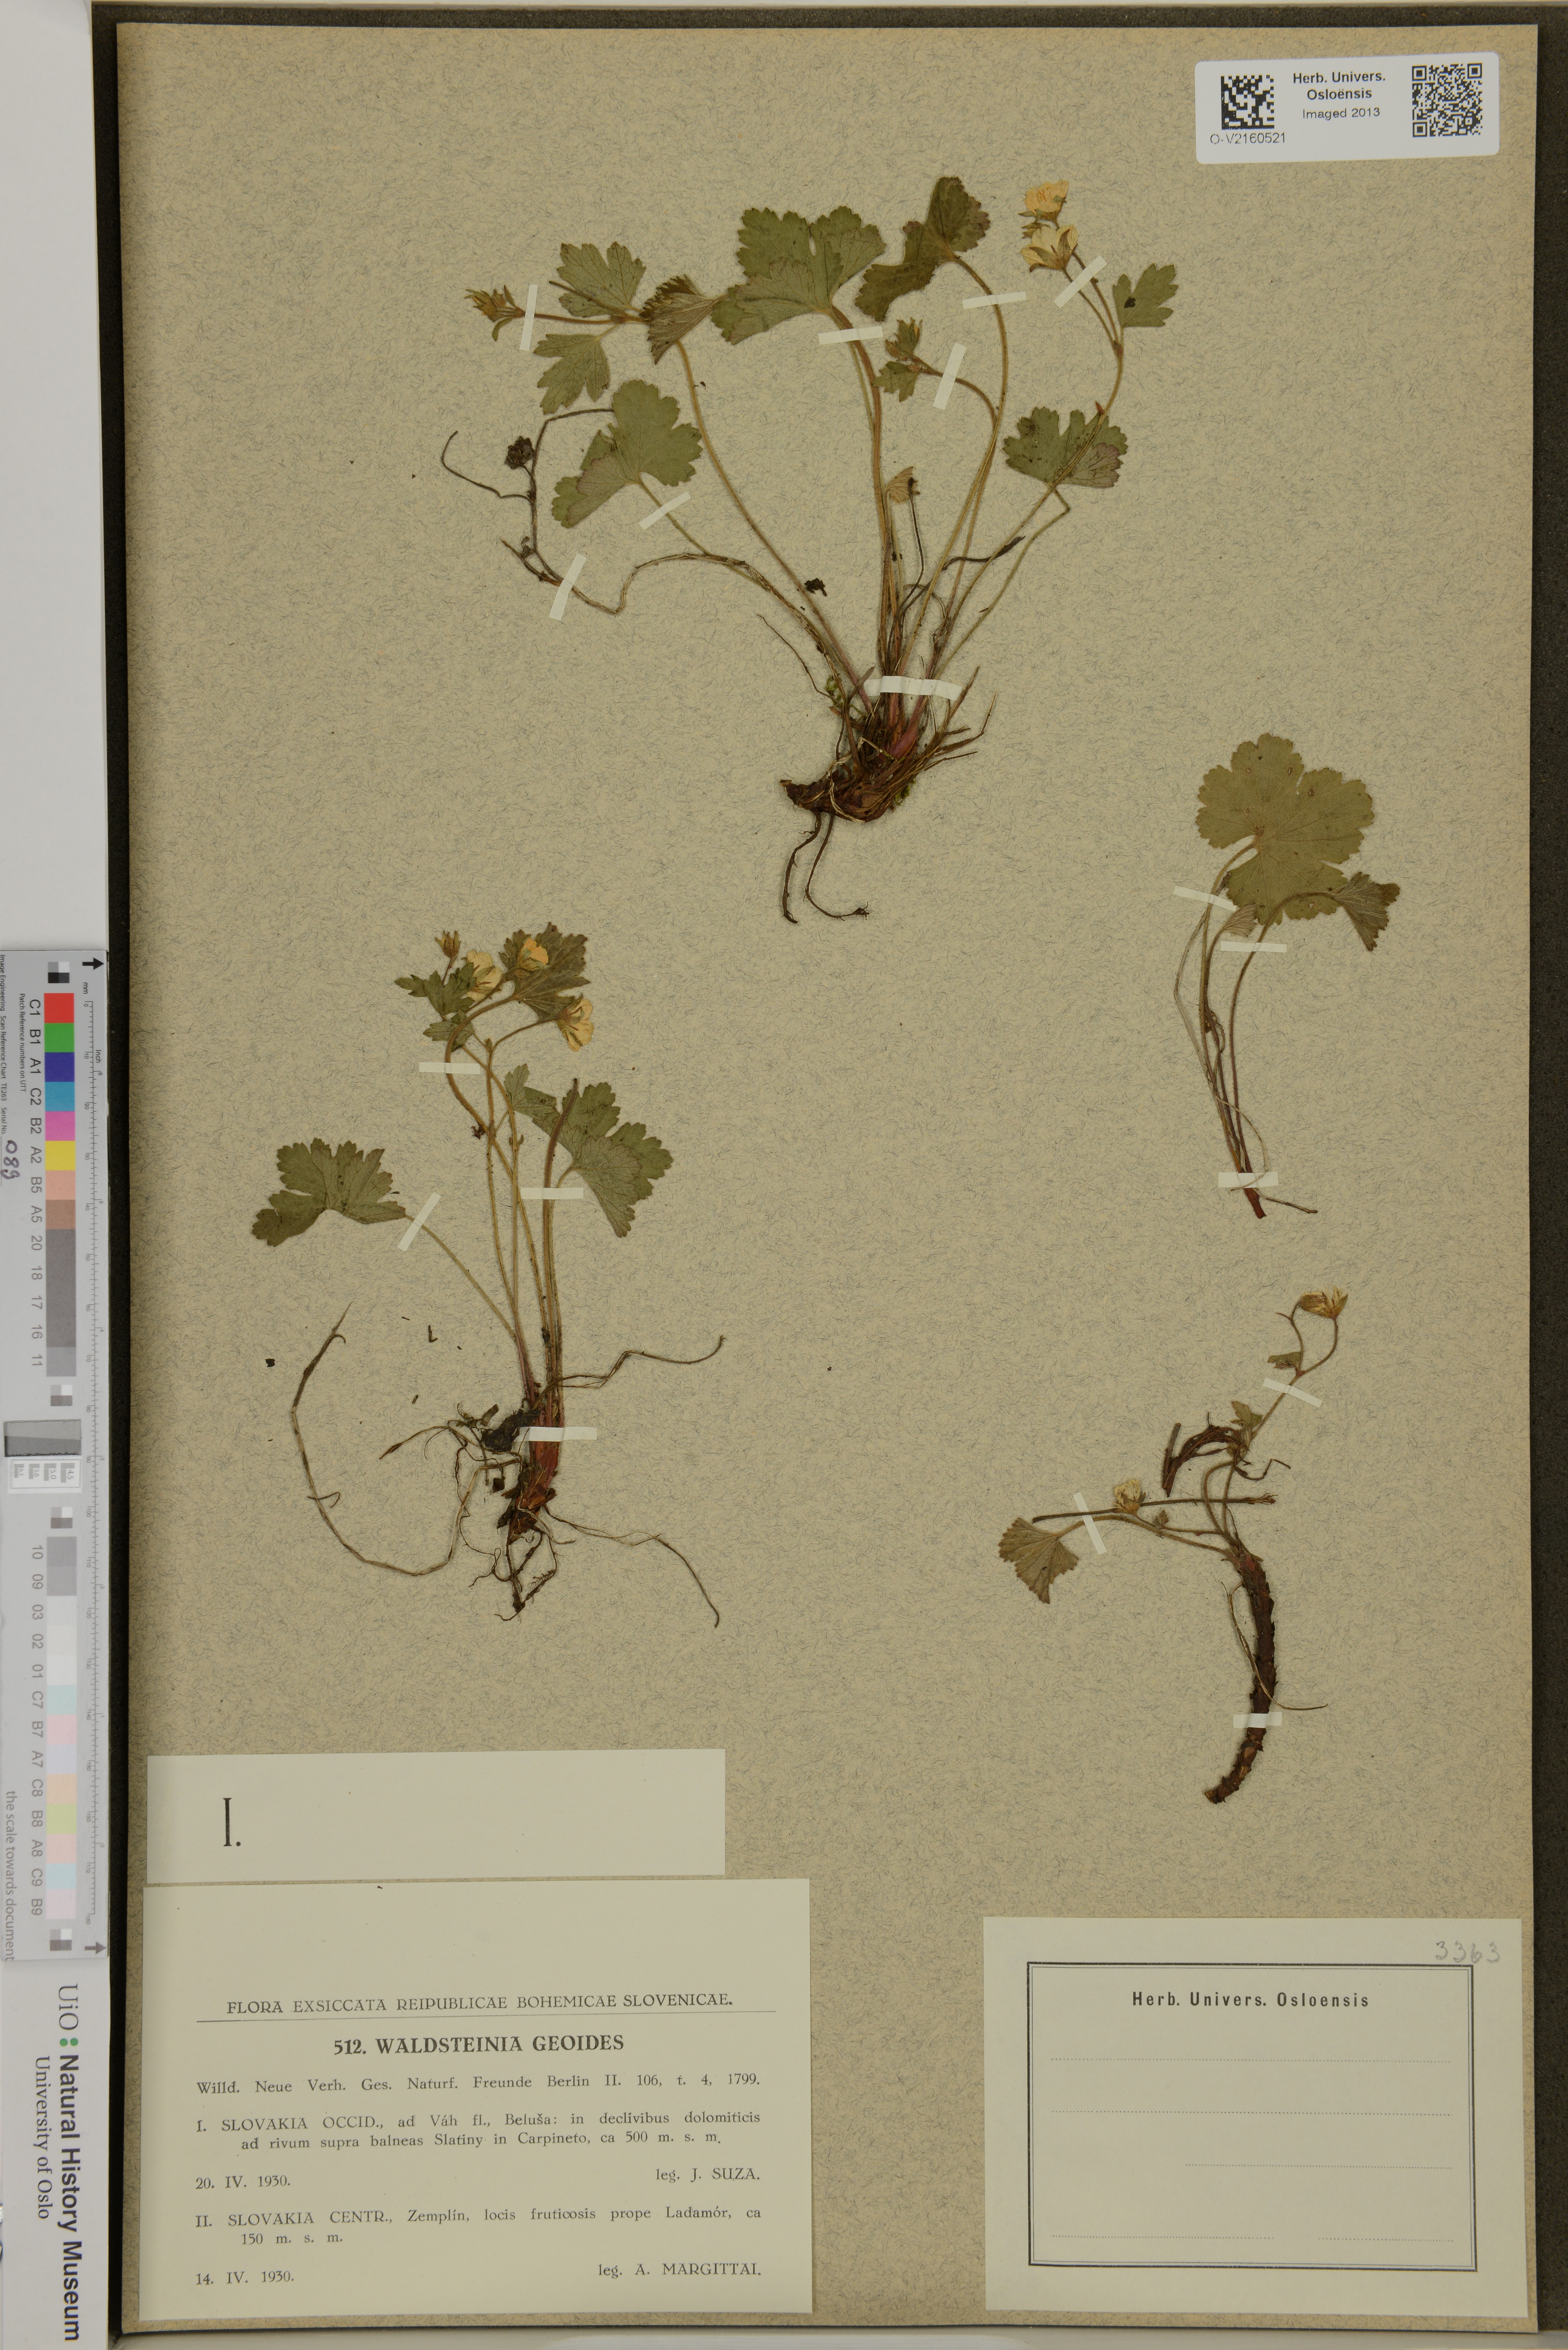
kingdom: Plantae
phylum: Tracheophyta
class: Magnoliopsida
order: Rosales
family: Rosaceae
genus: Geum
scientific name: Geum waldsteinia
